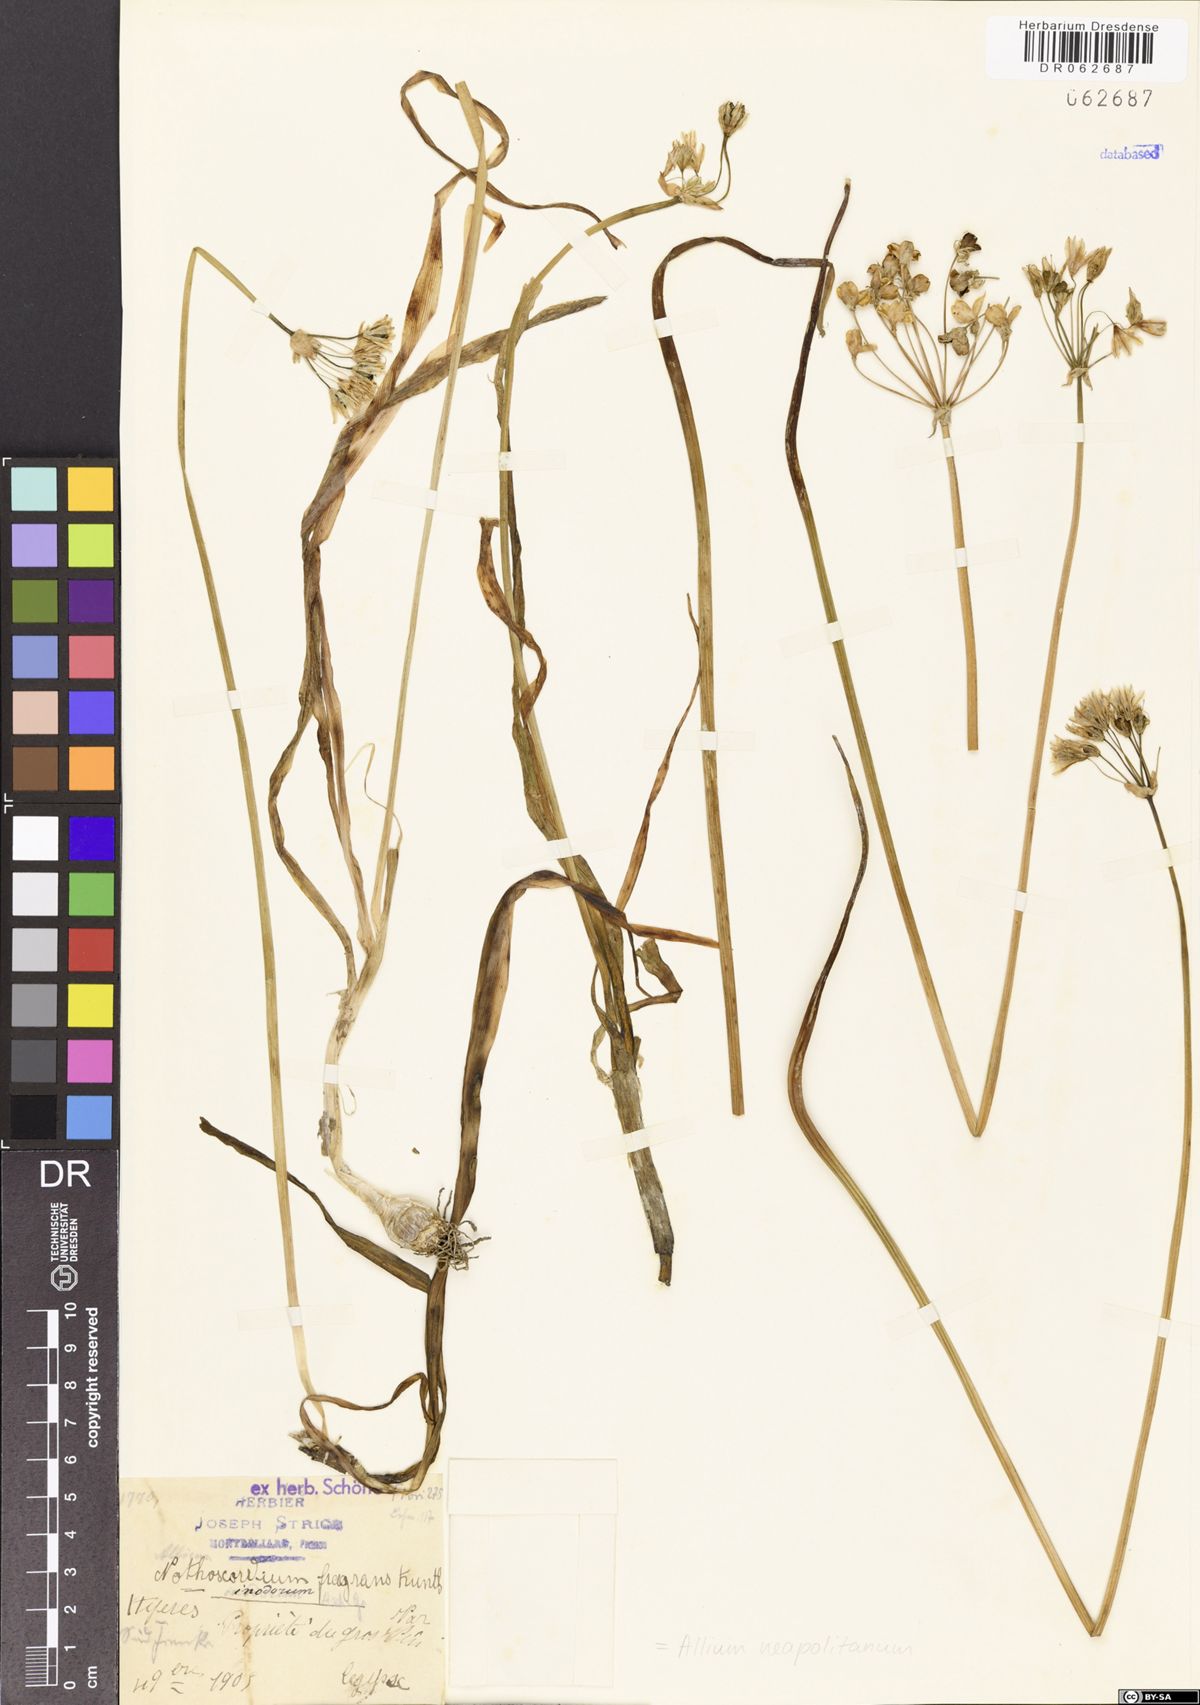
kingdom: Plantae
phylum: Tracheophyta
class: Liliopsida
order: Asparagales
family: Amaryllidaceae
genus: Allium
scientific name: Allium neapolitanum
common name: Neapolitan garlic
